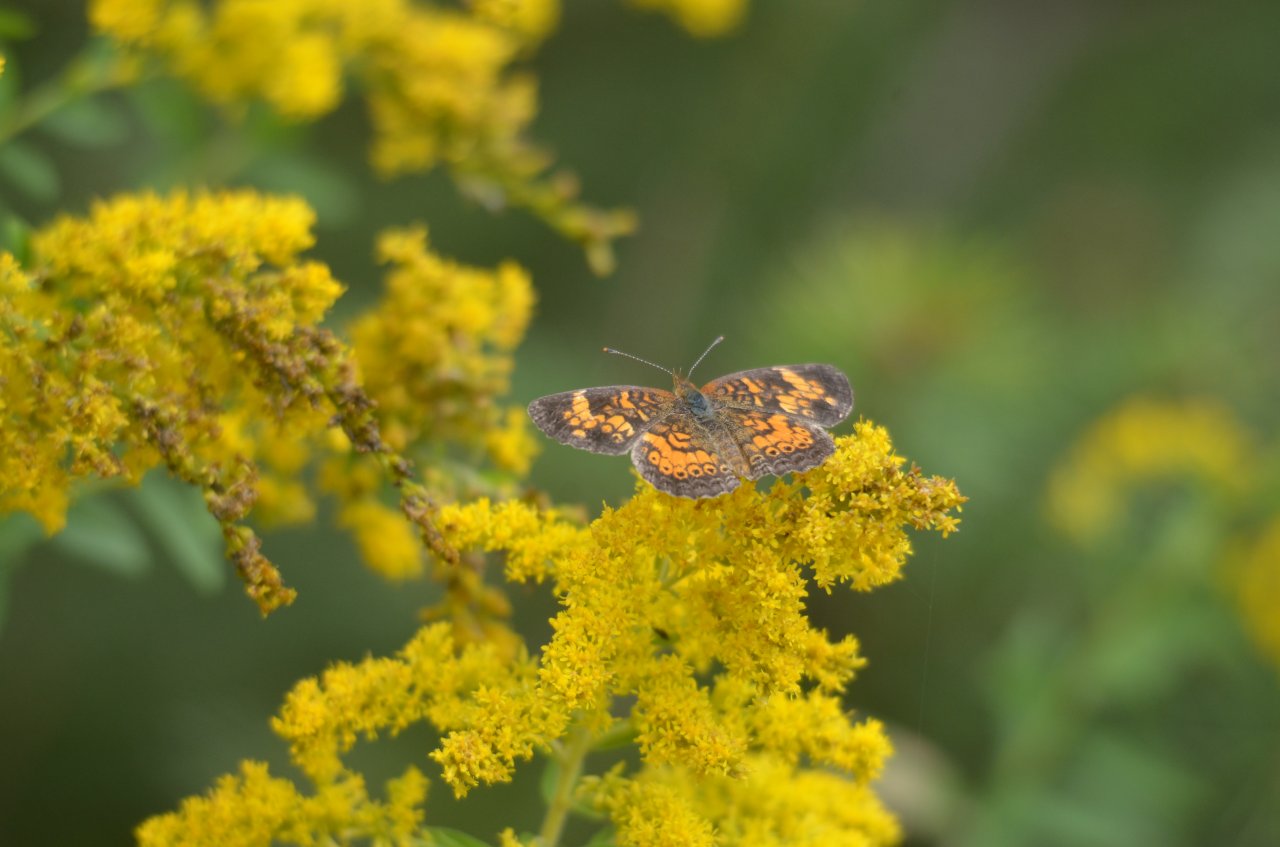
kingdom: Animalia
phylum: Arthropoda
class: Insecta
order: Lepidoptera
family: Nymphalidae
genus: Phyciodes
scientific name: Phyciodes tharos
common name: Northern Crescent
